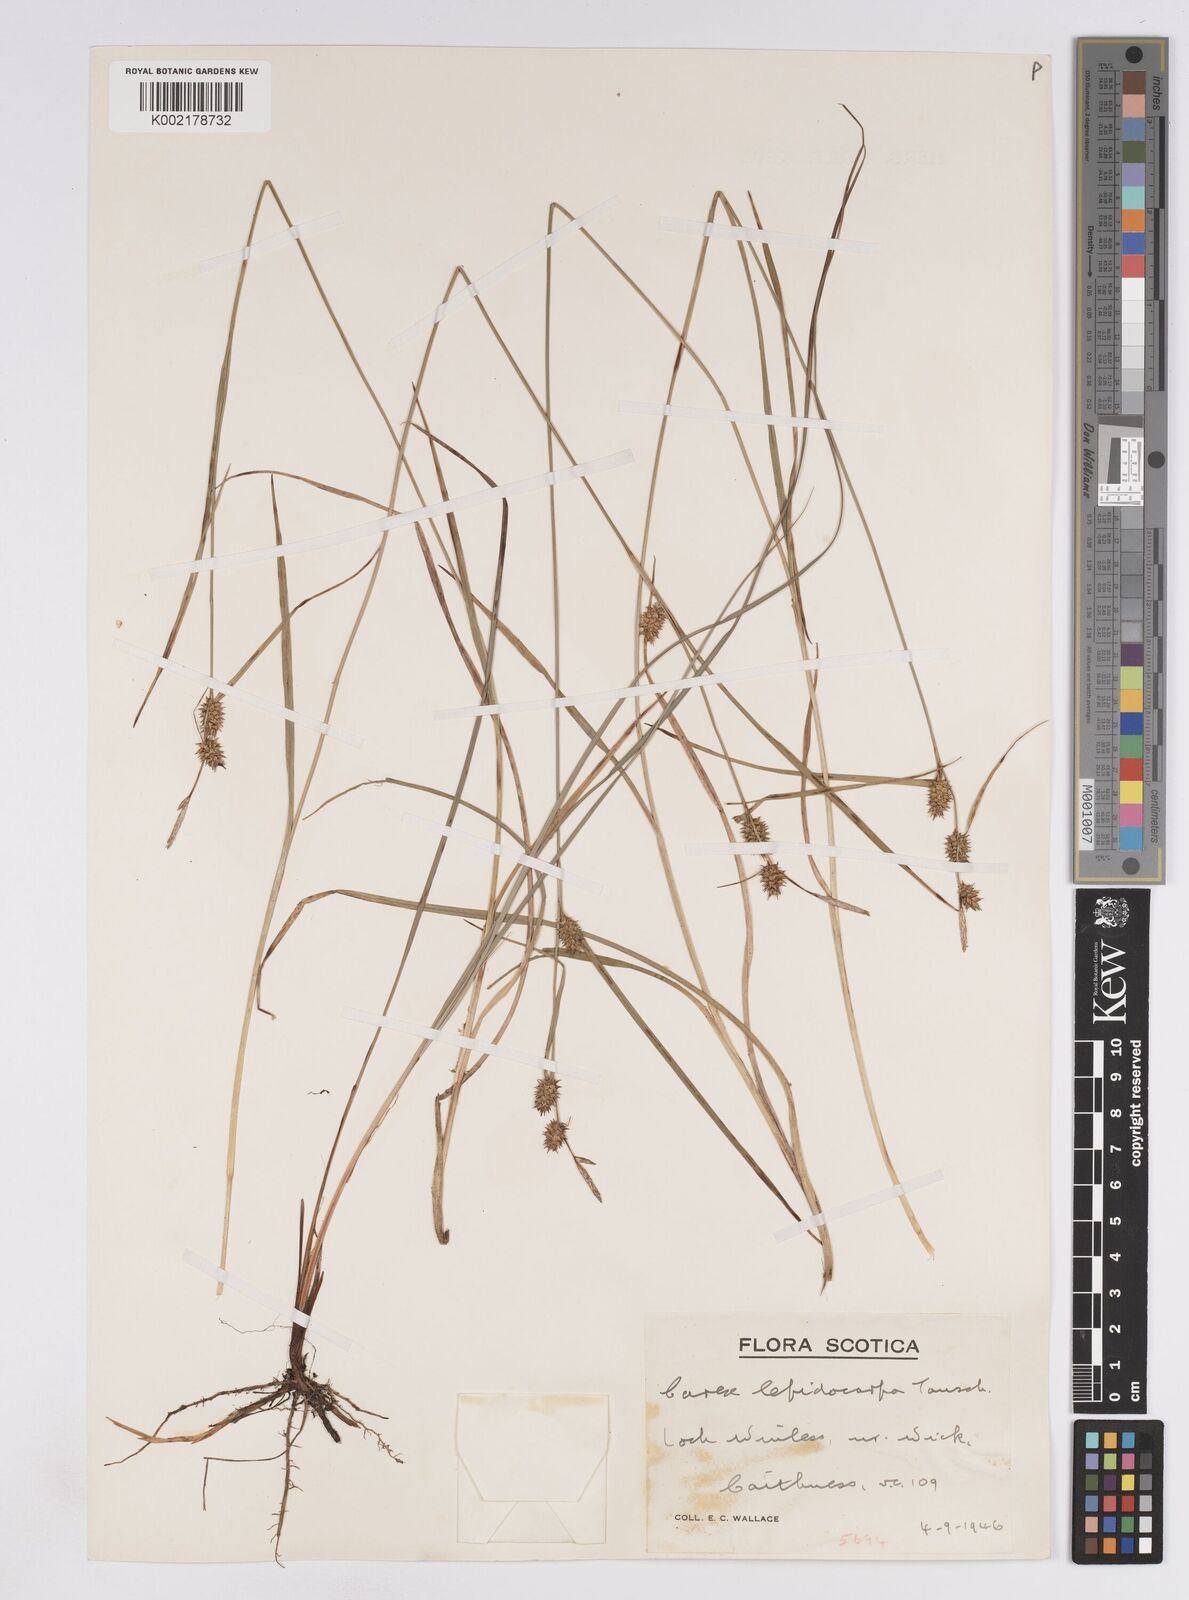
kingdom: Plantae
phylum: Tracheophyta
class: Liliopsida
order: Poales
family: Cyperaceae
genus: Carex
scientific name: Carex lepidocarpa
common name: Long-stalked yellow-sedge
